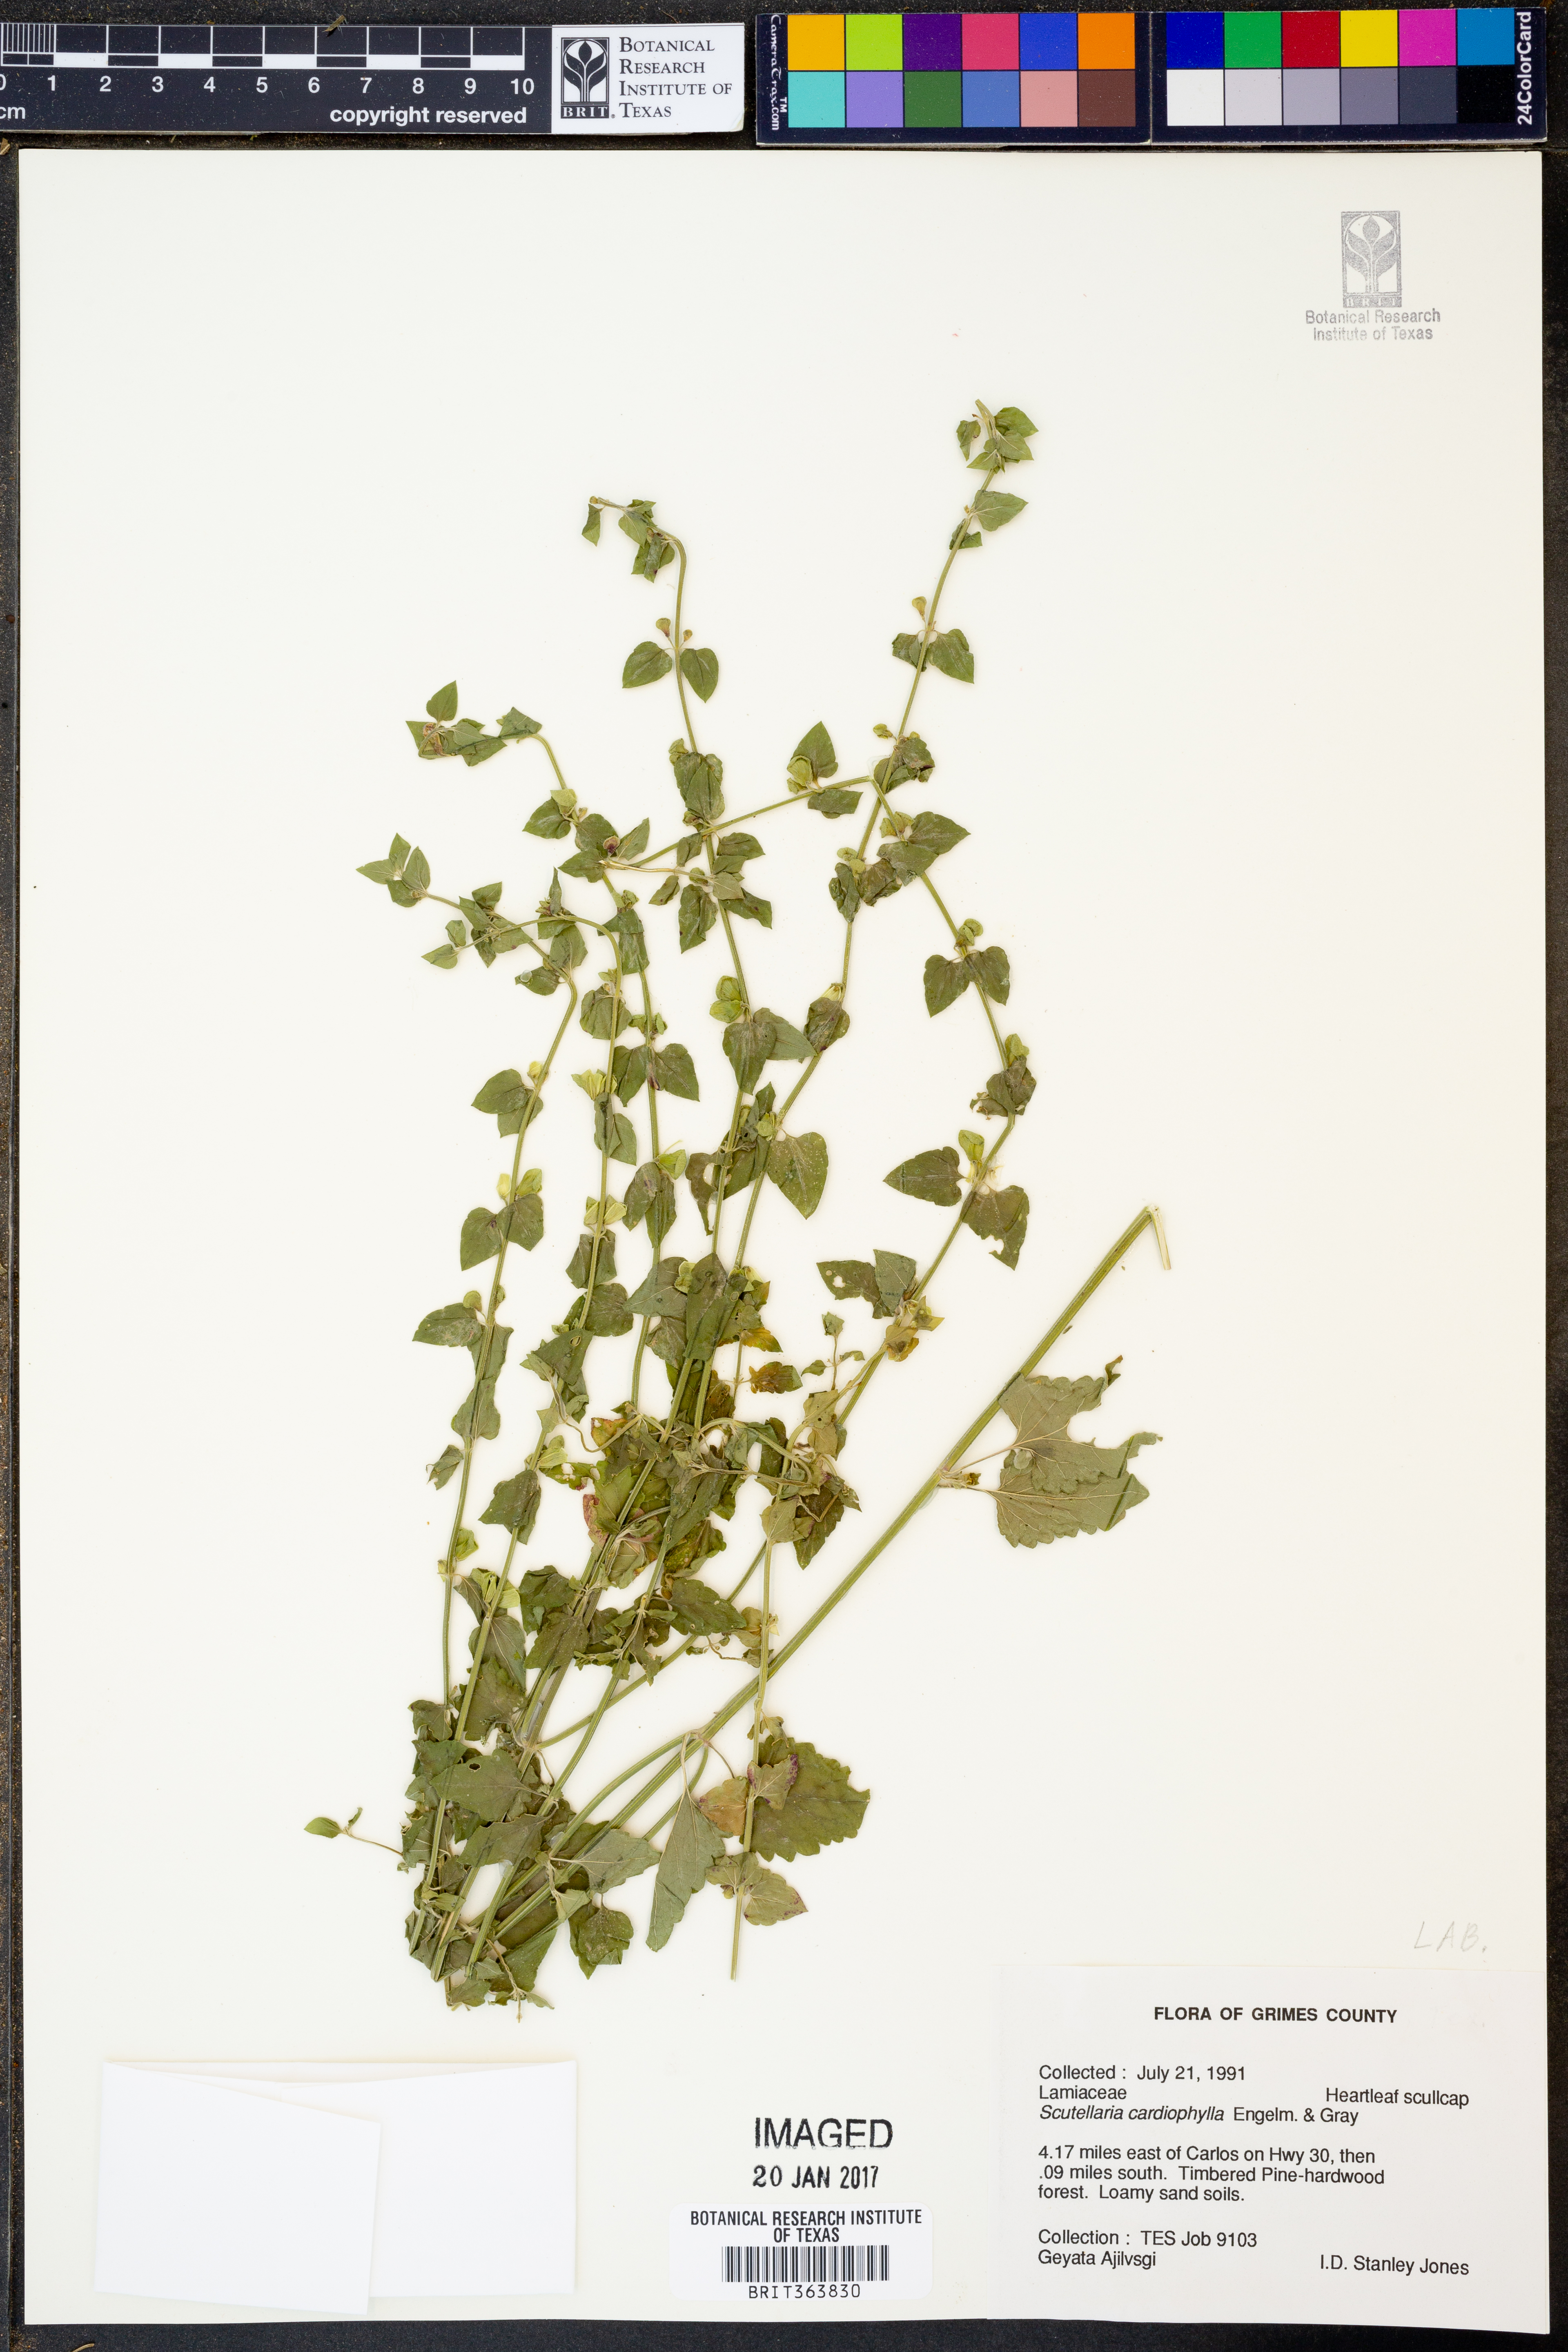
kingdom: Plantae
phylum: Tracheophyta
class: Magnoliopsida
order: Lamiales
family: Lamiaceae
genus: Scutellaria
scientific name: Scutellaria cardiophylla
